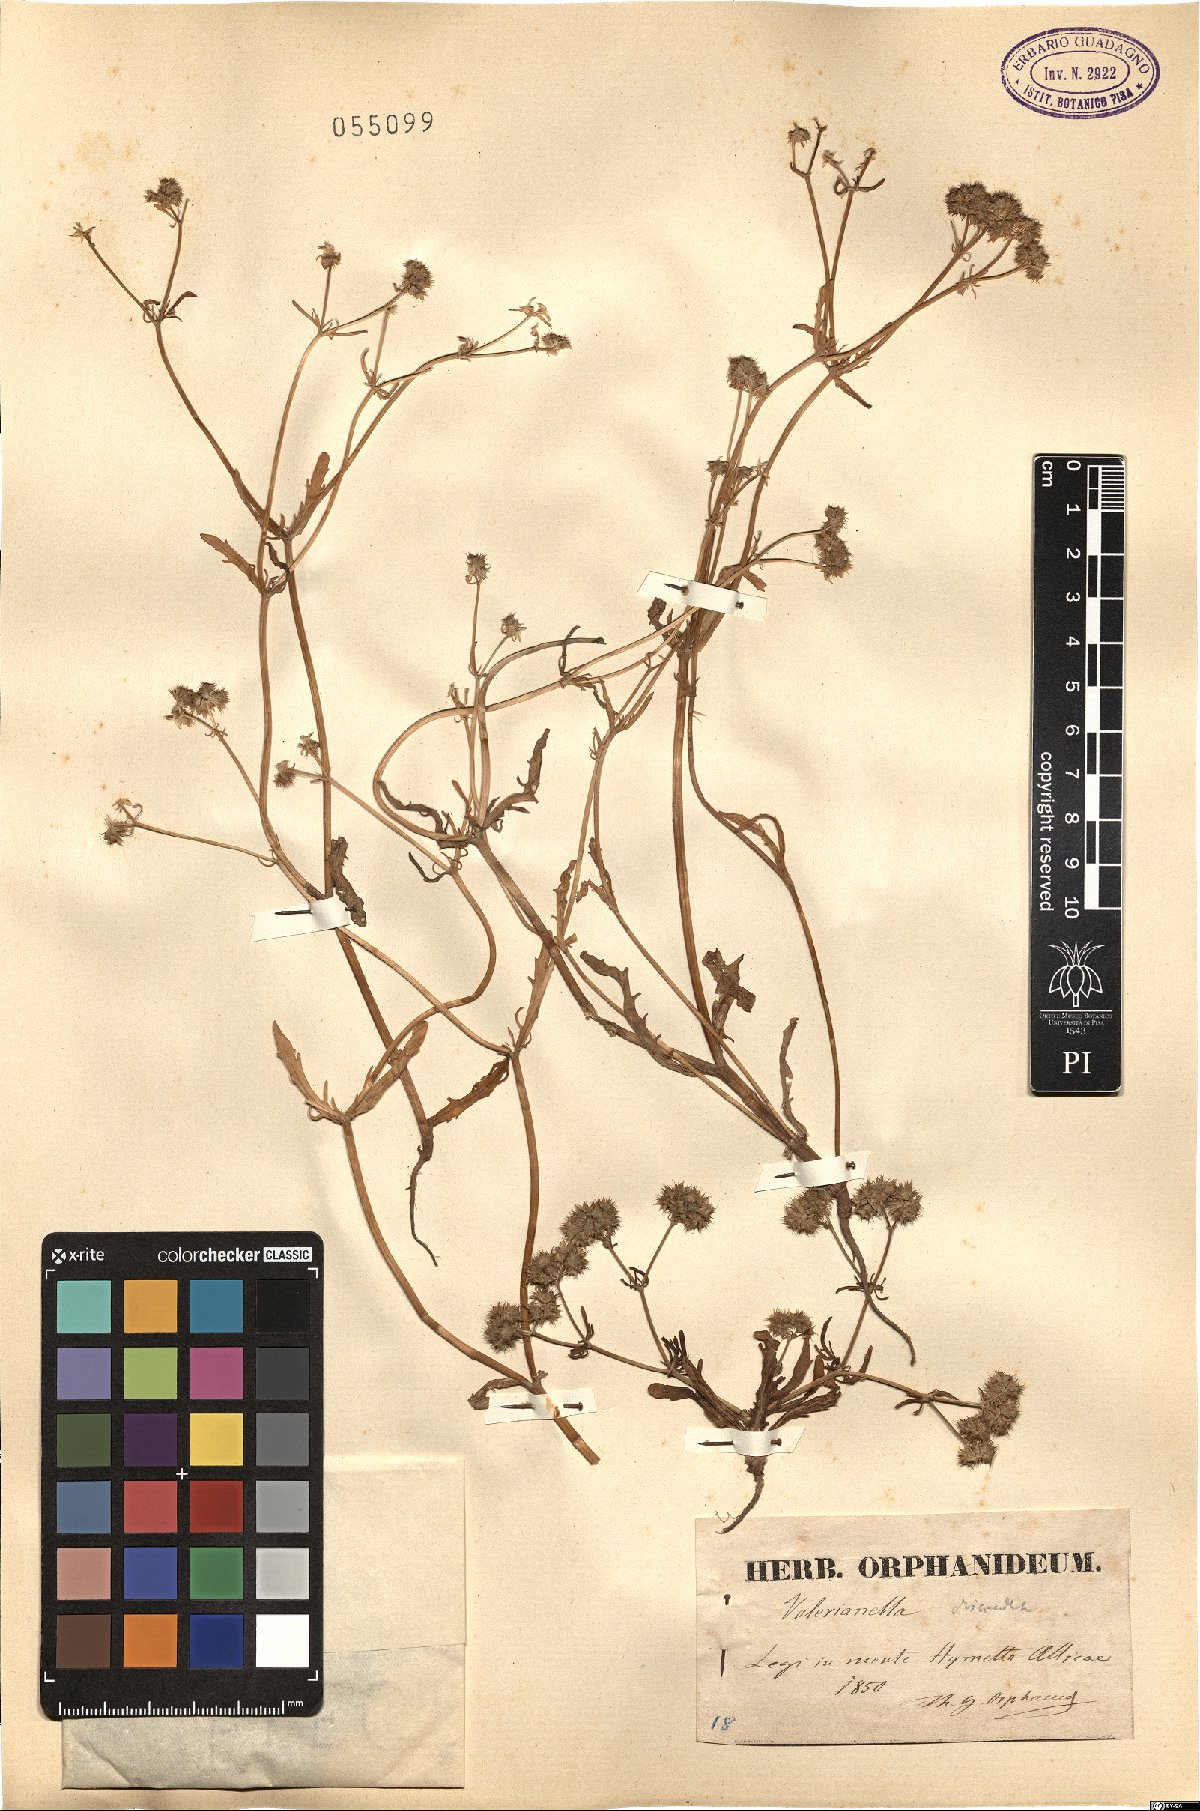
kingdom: Plantae
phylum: Tracheophyta
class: Magnoliopsida
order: Dipsacales
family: Caprifoliaceae
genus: Valerianella
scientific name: Valerianella discoidea
